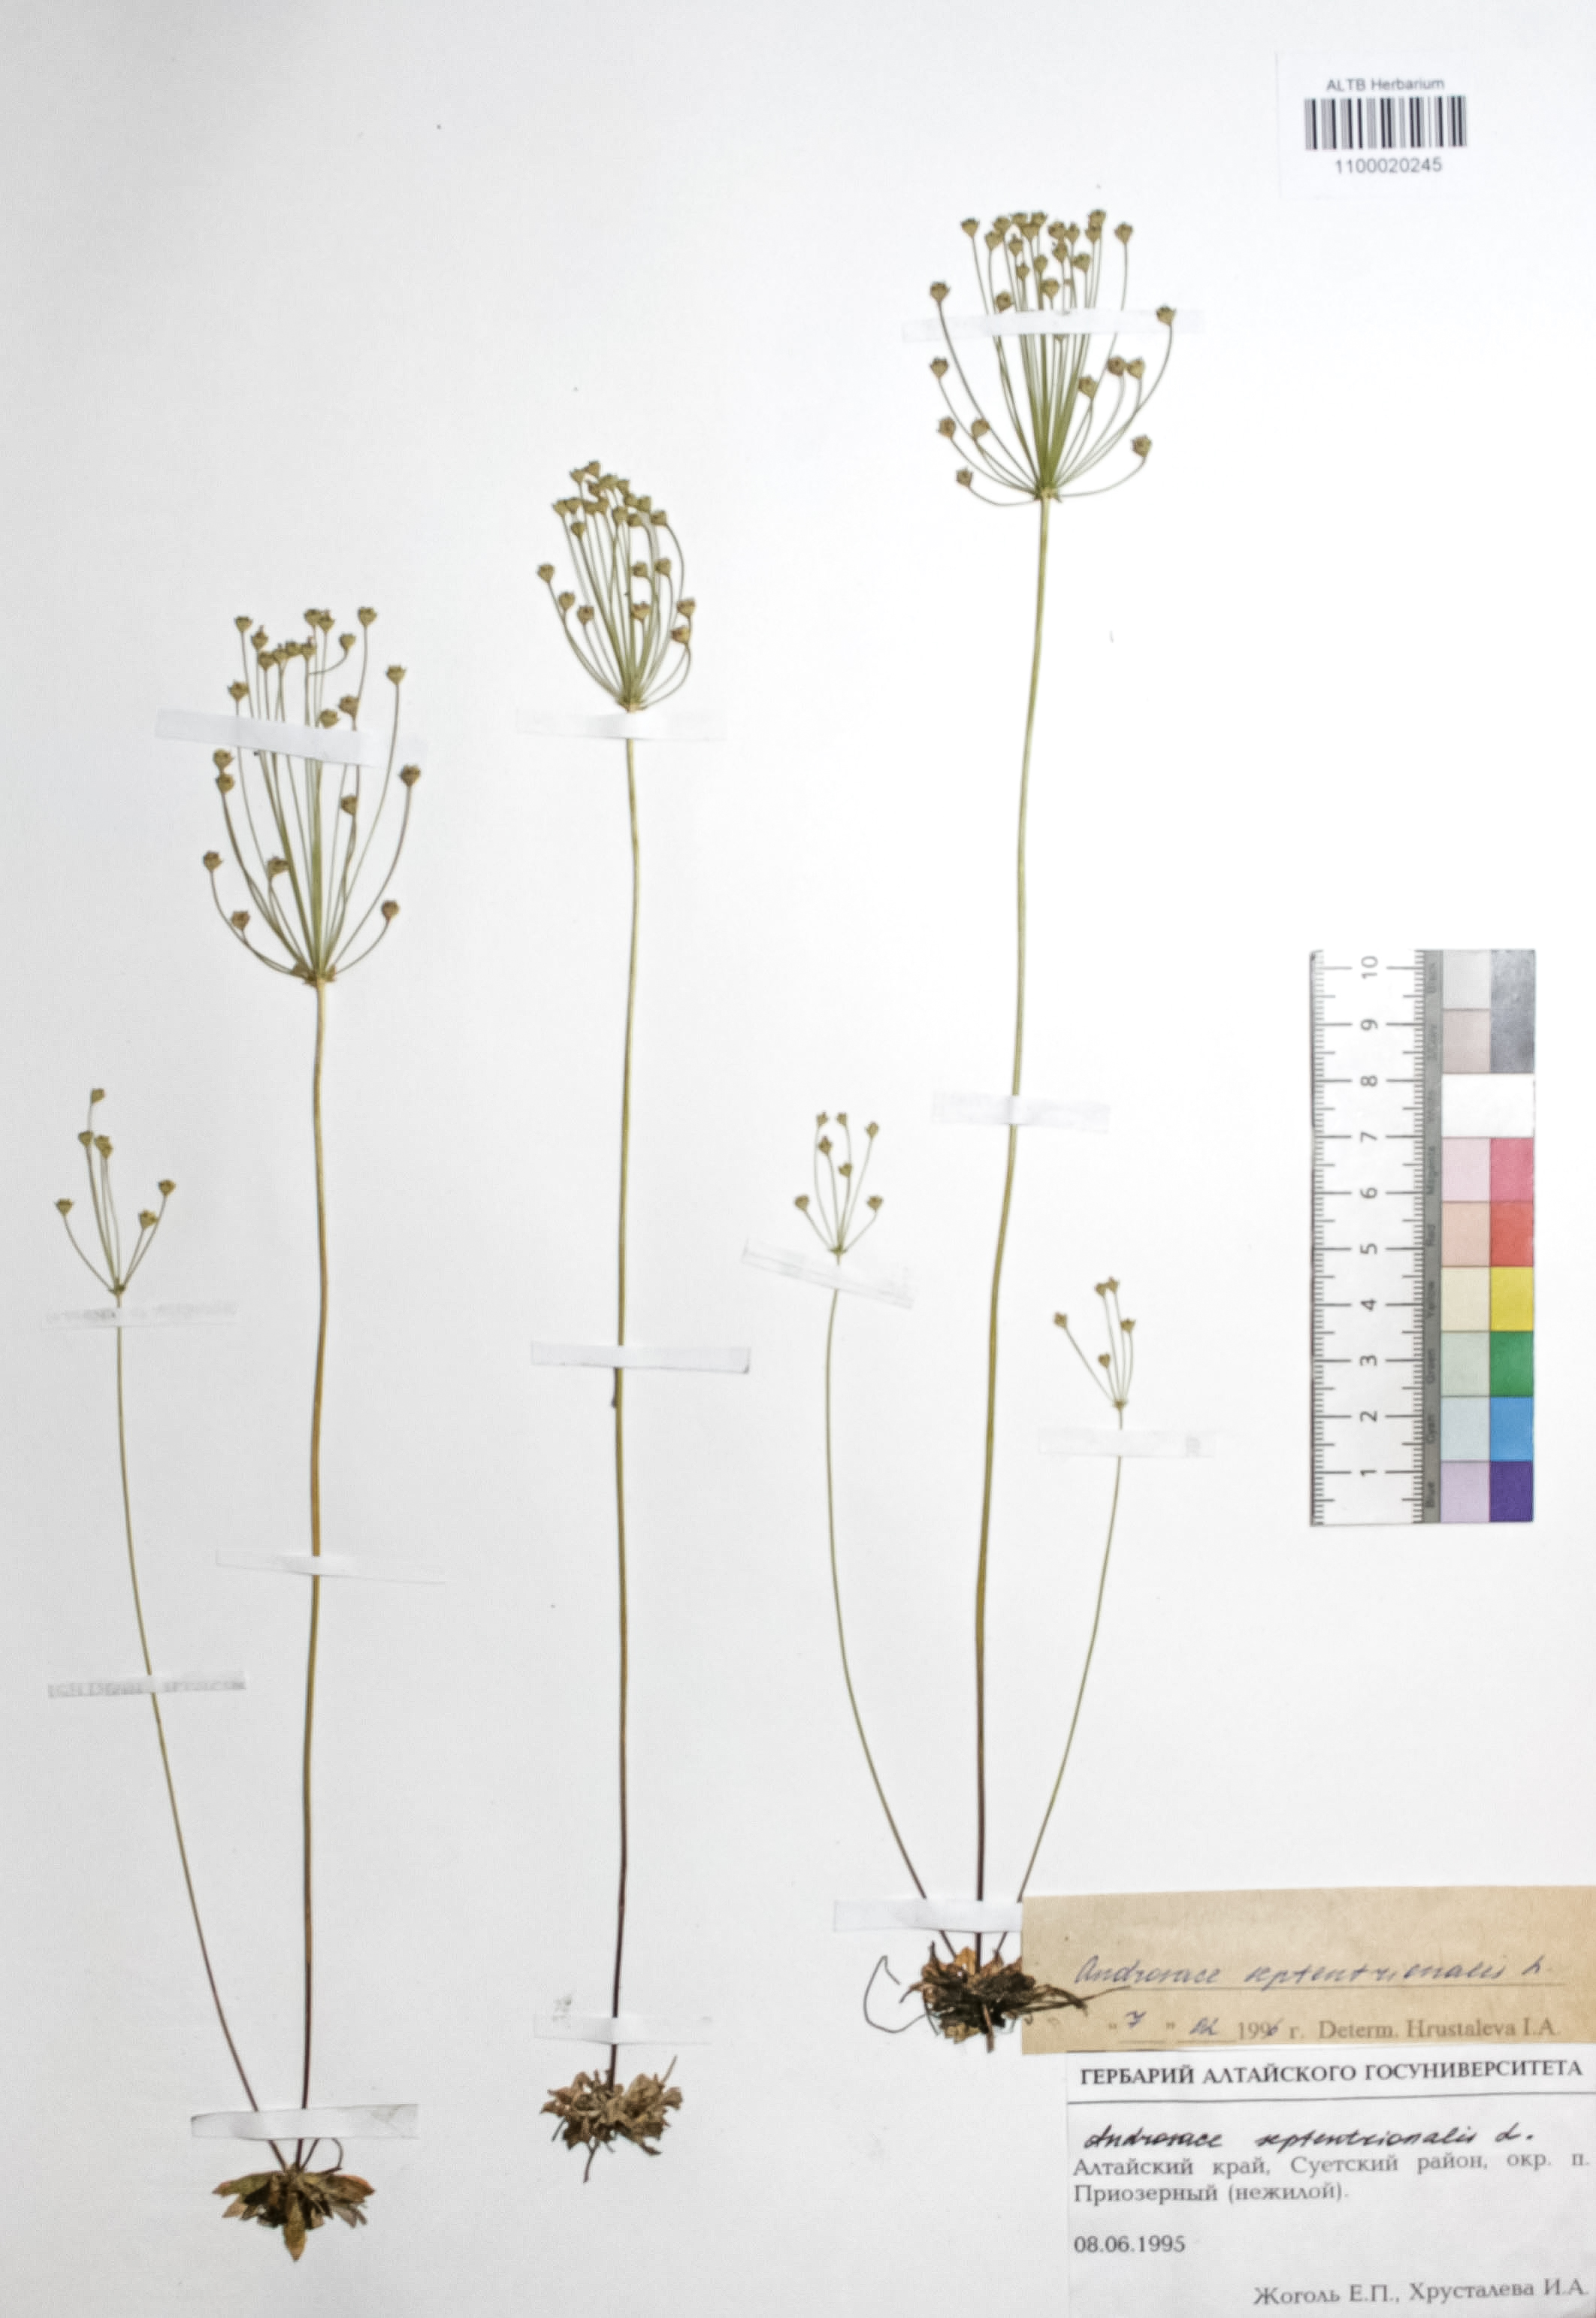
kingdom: Plantae
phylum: Tracheophyta
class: Magnoliopsida
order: Ericales
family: Primulaceae
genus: Androsace
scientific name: Androsace septentrionalis
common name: Hairy northern fairy-candelabra
